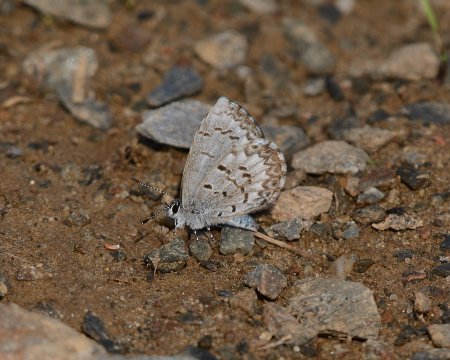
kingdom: Animalia
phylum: Arthropoda
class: Insecta
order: Lepidoptera
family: Lycaenidae
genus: Celastrina
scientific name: Celastrina lucia
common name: Northern Spring Azure
